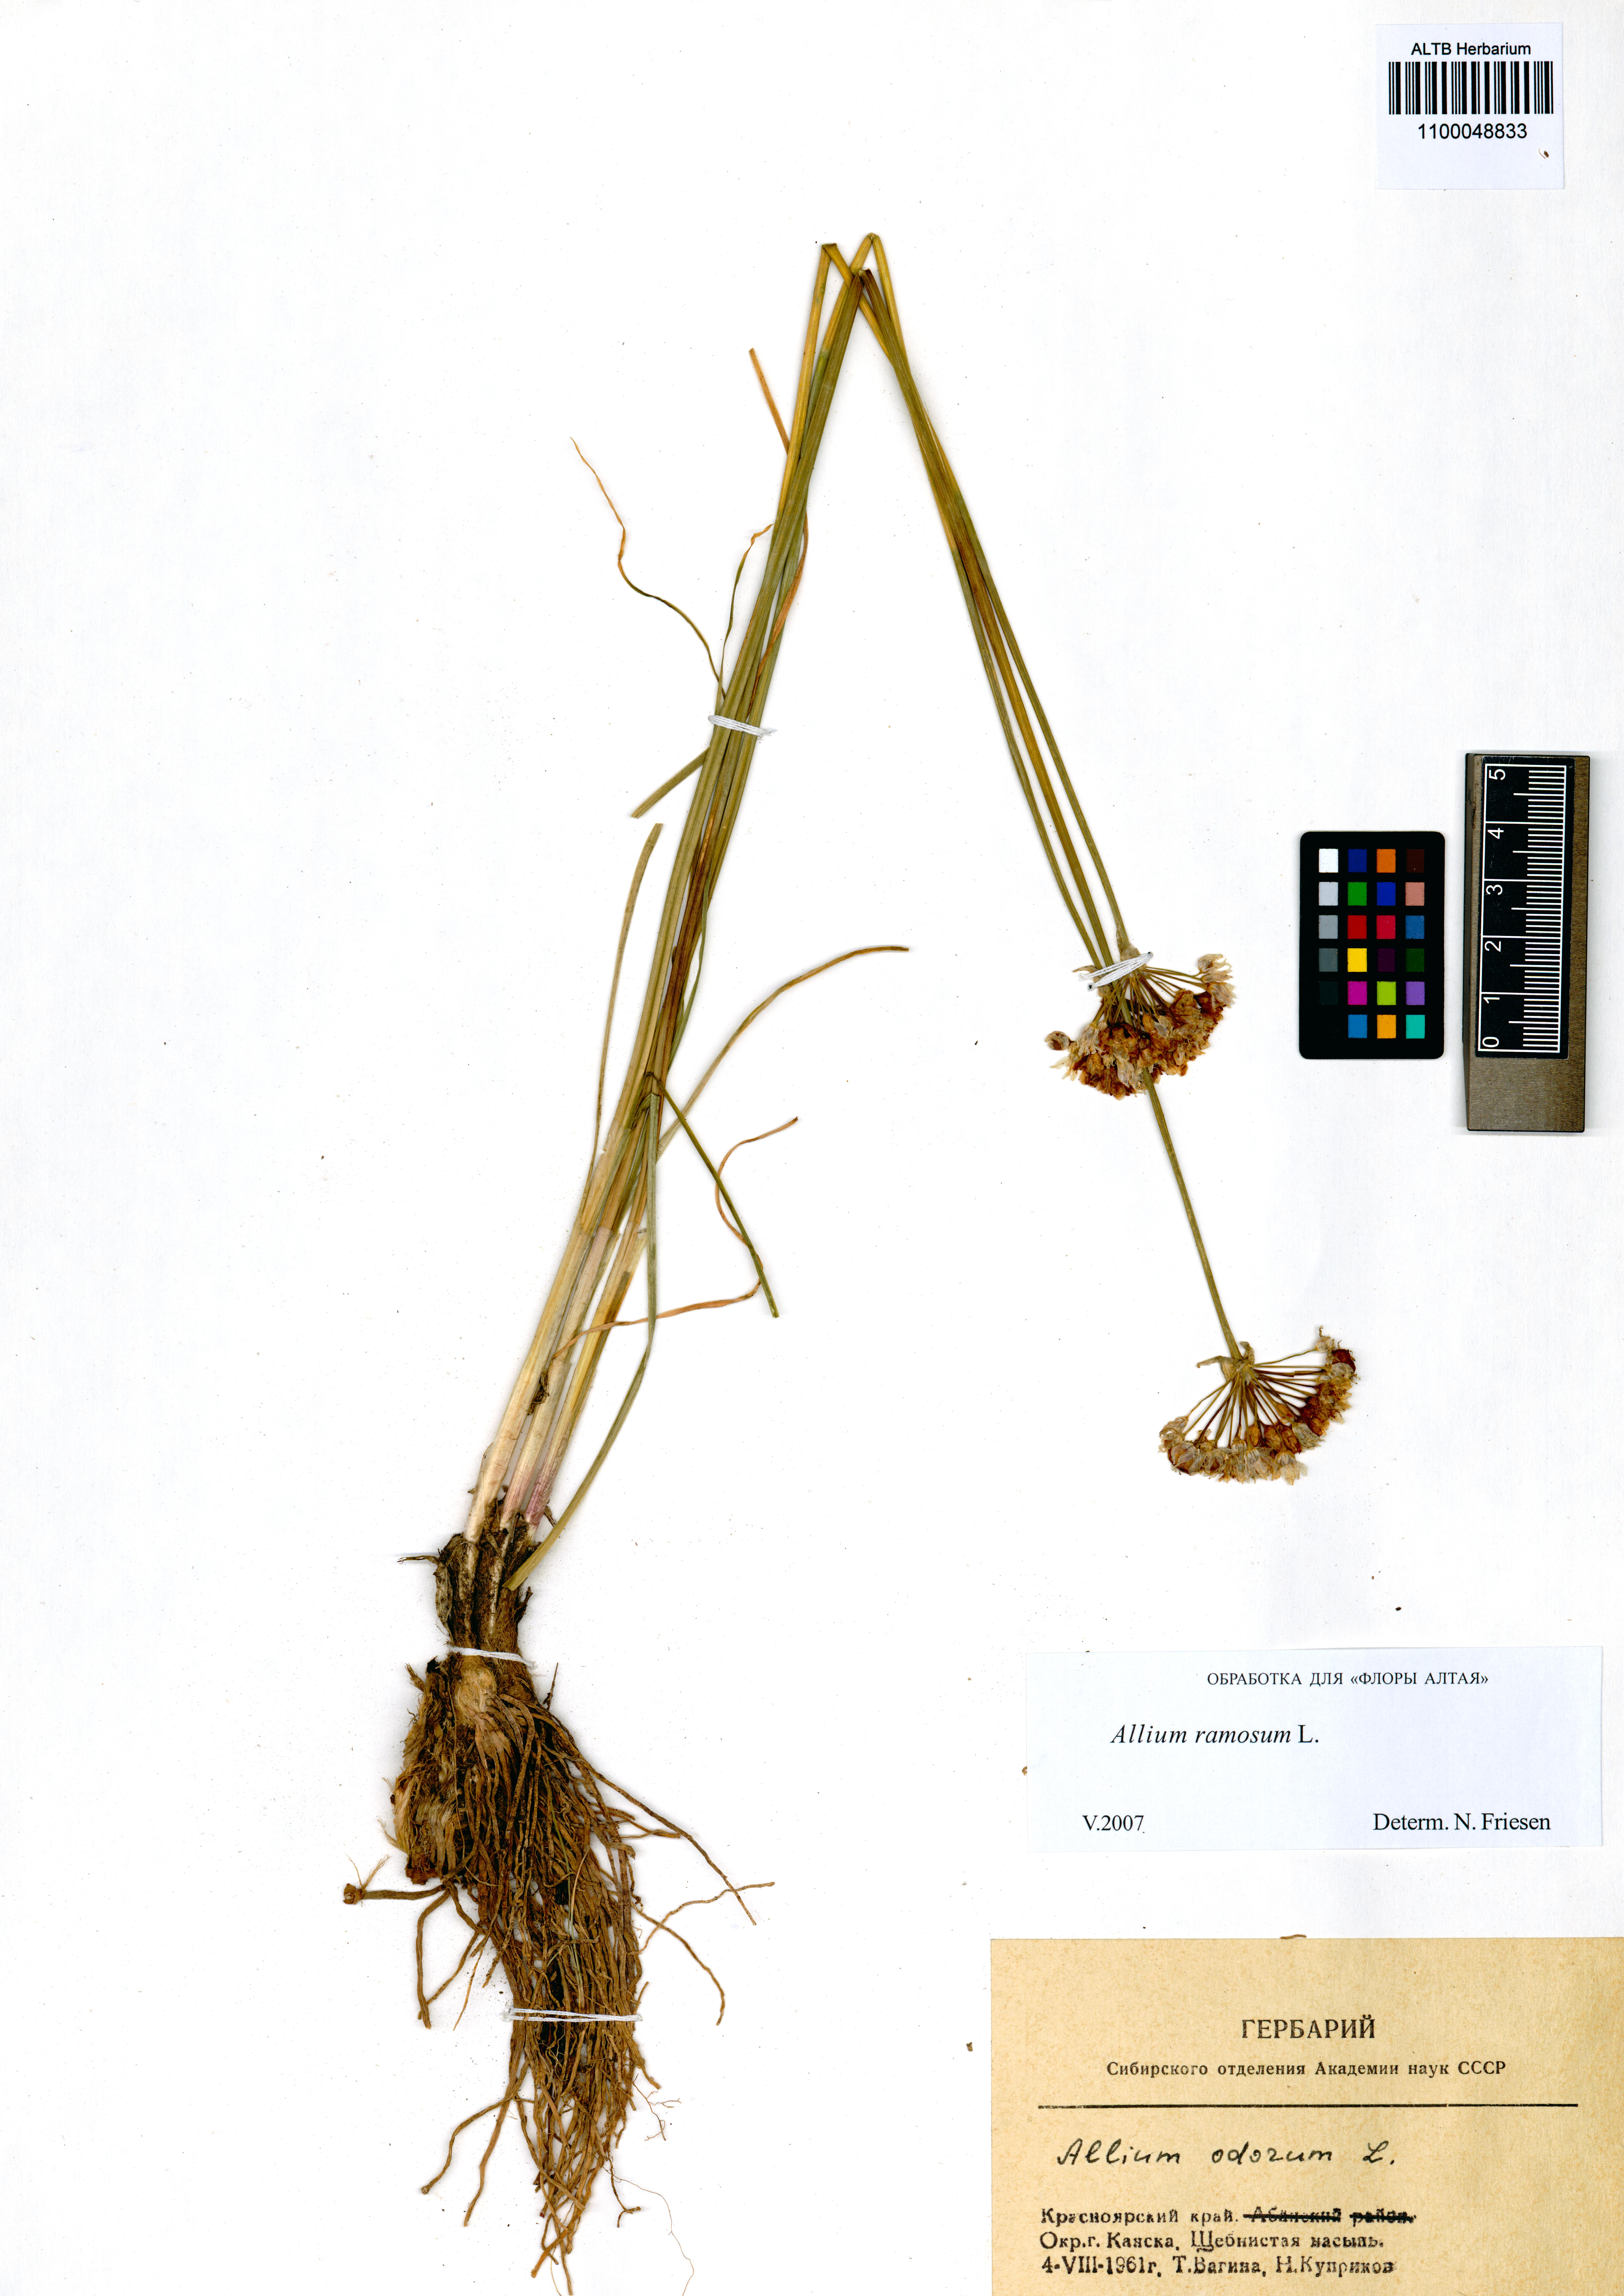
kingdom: Plantae
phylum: Tracheophyta
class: Liliopsida
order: Asparagales
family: Amaryllidaceae
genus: Allium
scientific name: Allium ramosum
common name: Fragrant garlic
